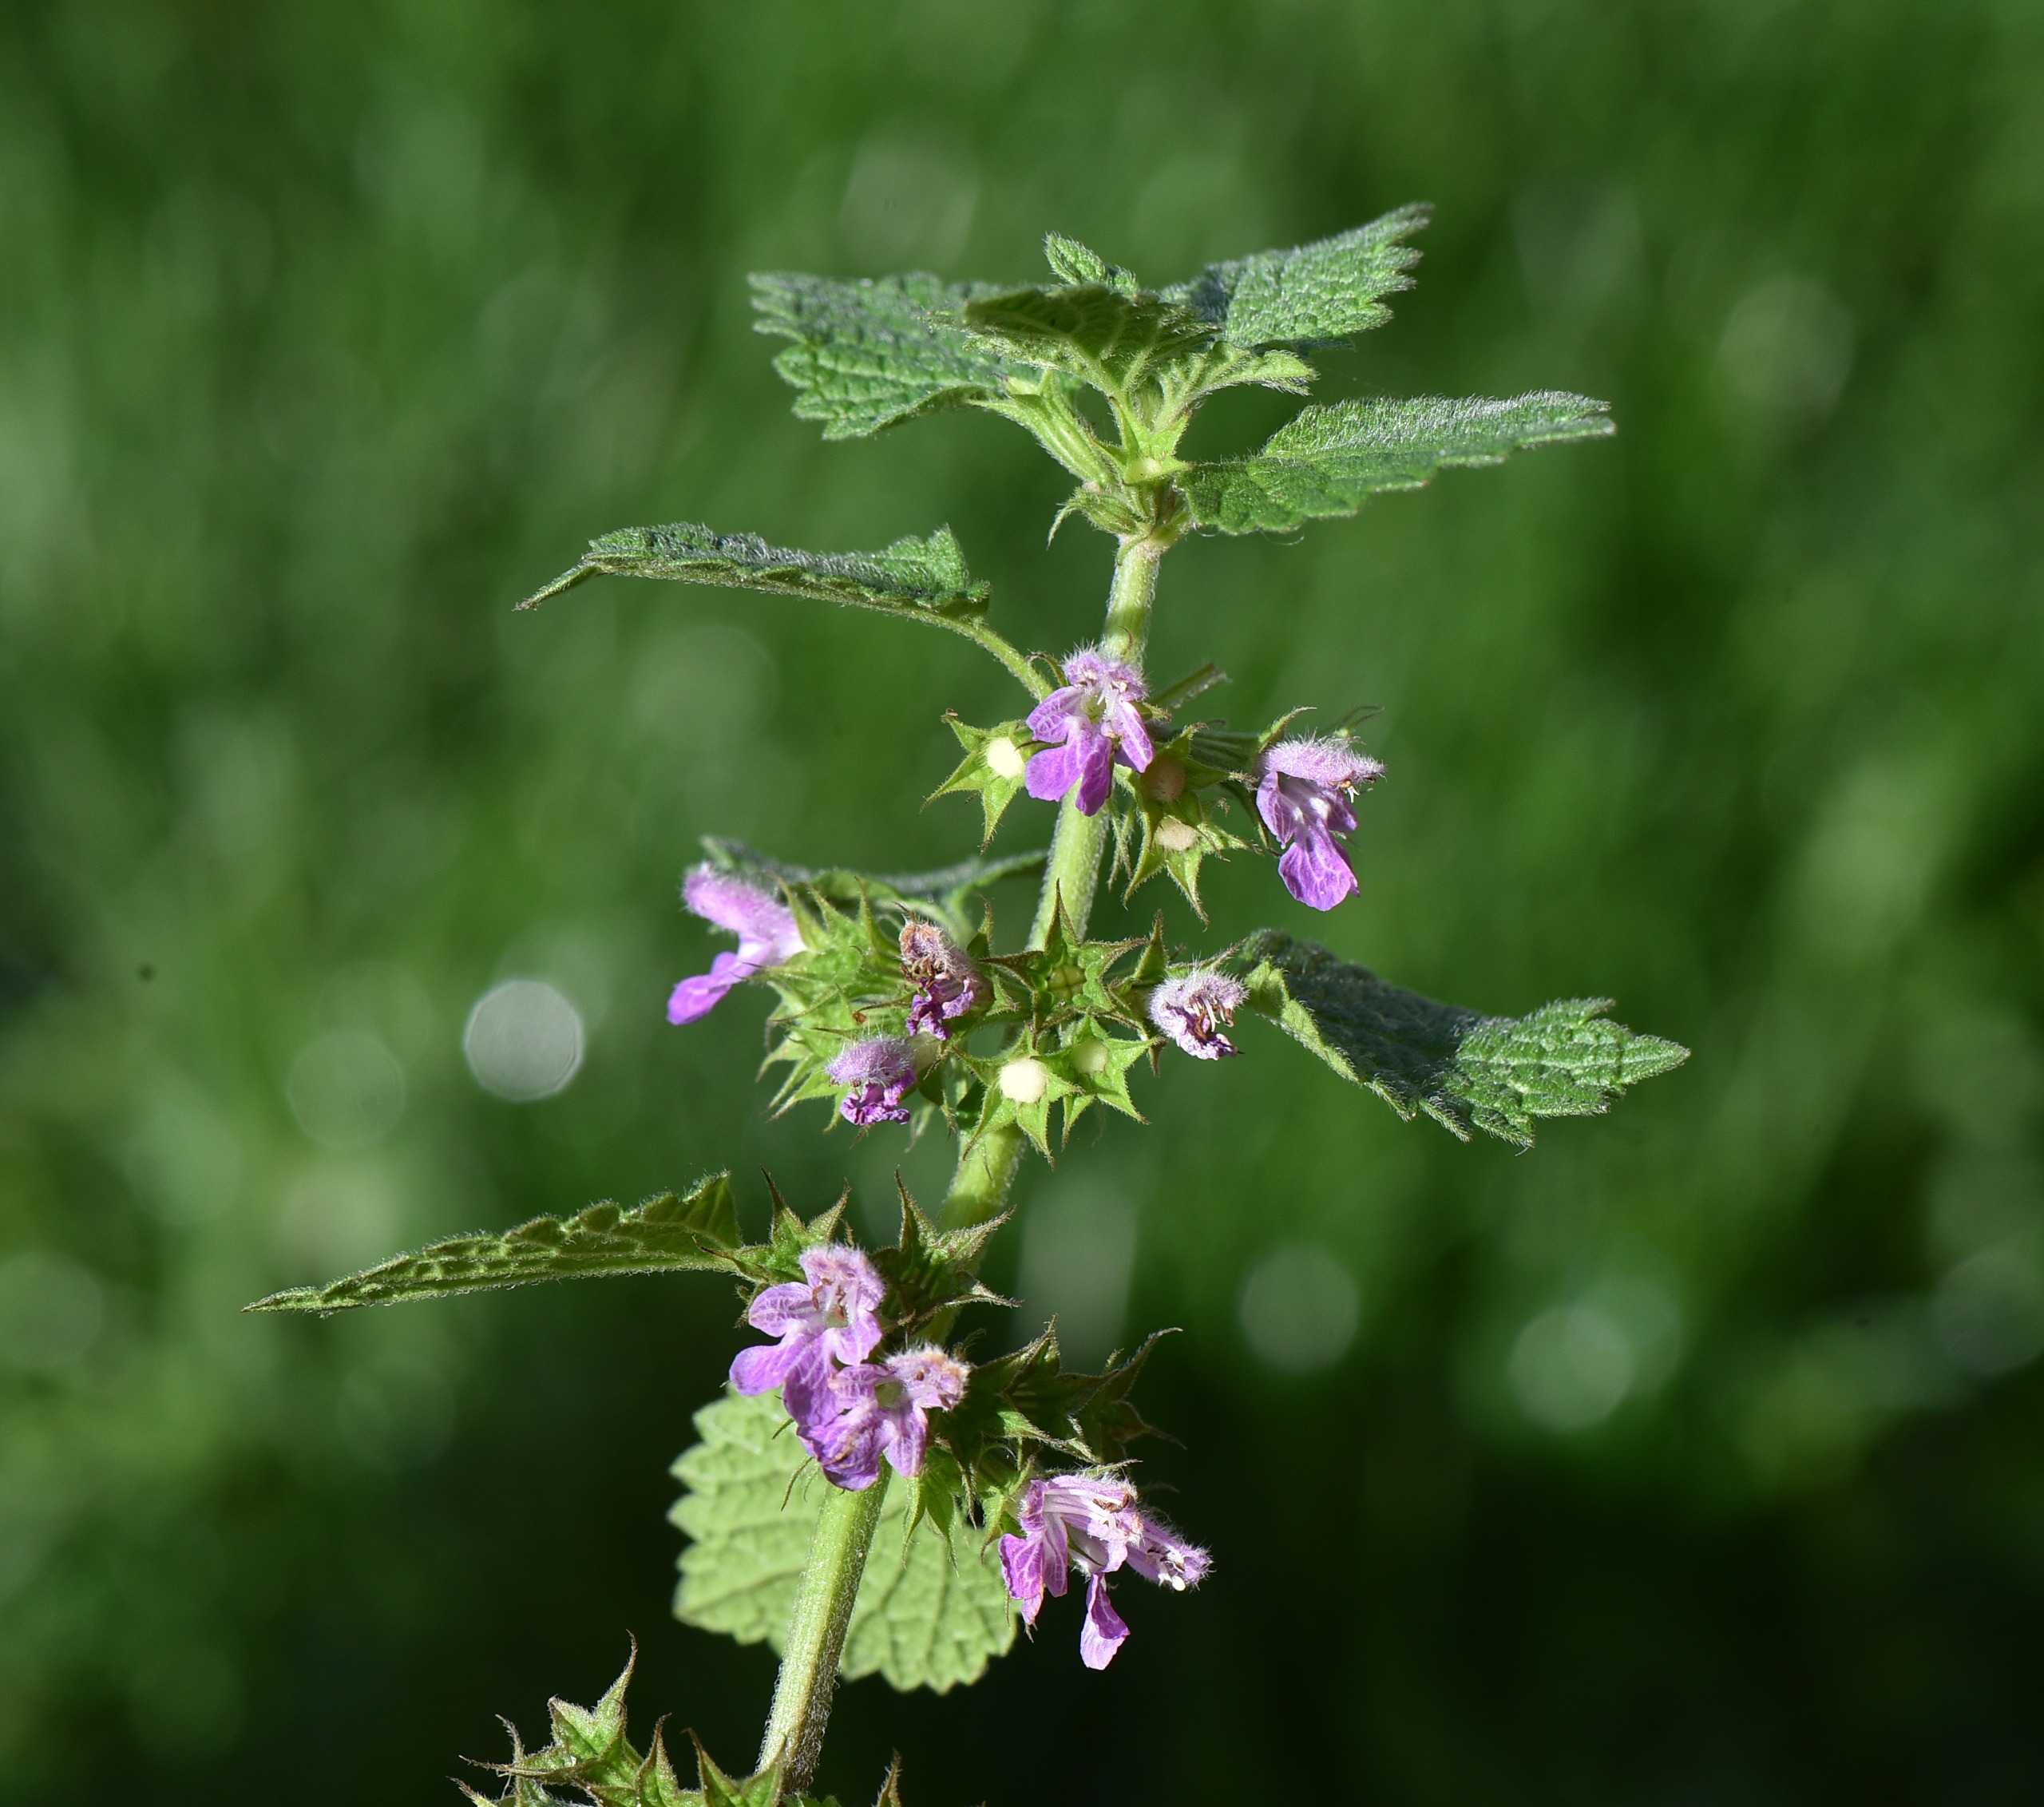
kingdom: Plantae
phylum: Tracheophyta
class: Magnoliopsida
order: Lamiales
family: Lamiaceae
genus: Ballota
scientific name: Ballota nigra
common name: Tandbæger
